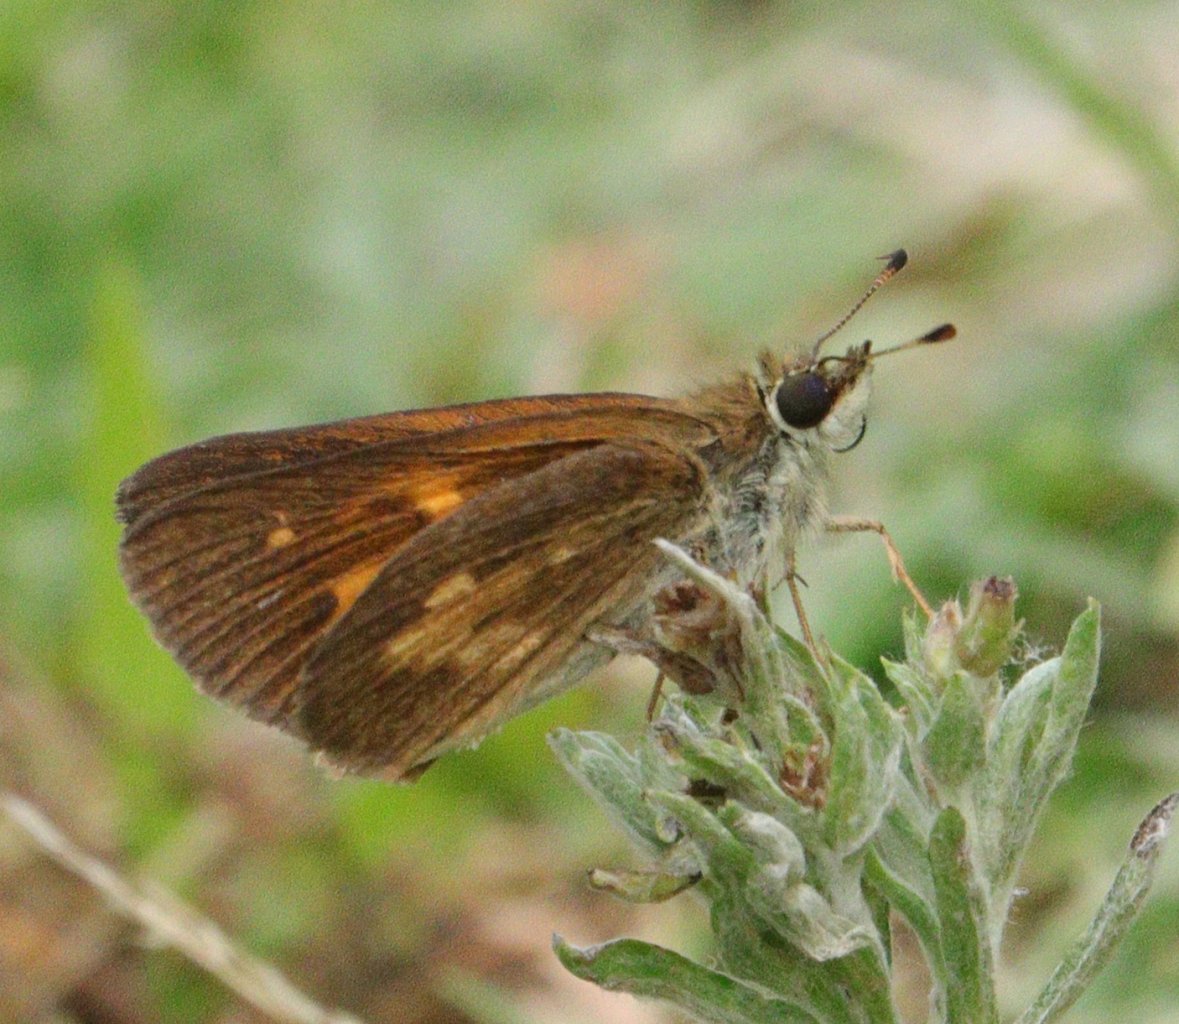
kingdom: Animalia
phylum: Arthropoda
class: Insecta
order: Lepidoptera
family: Hesperiidae
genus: Poanes
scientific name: Poanes viator
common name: Broad-winged Skipper
